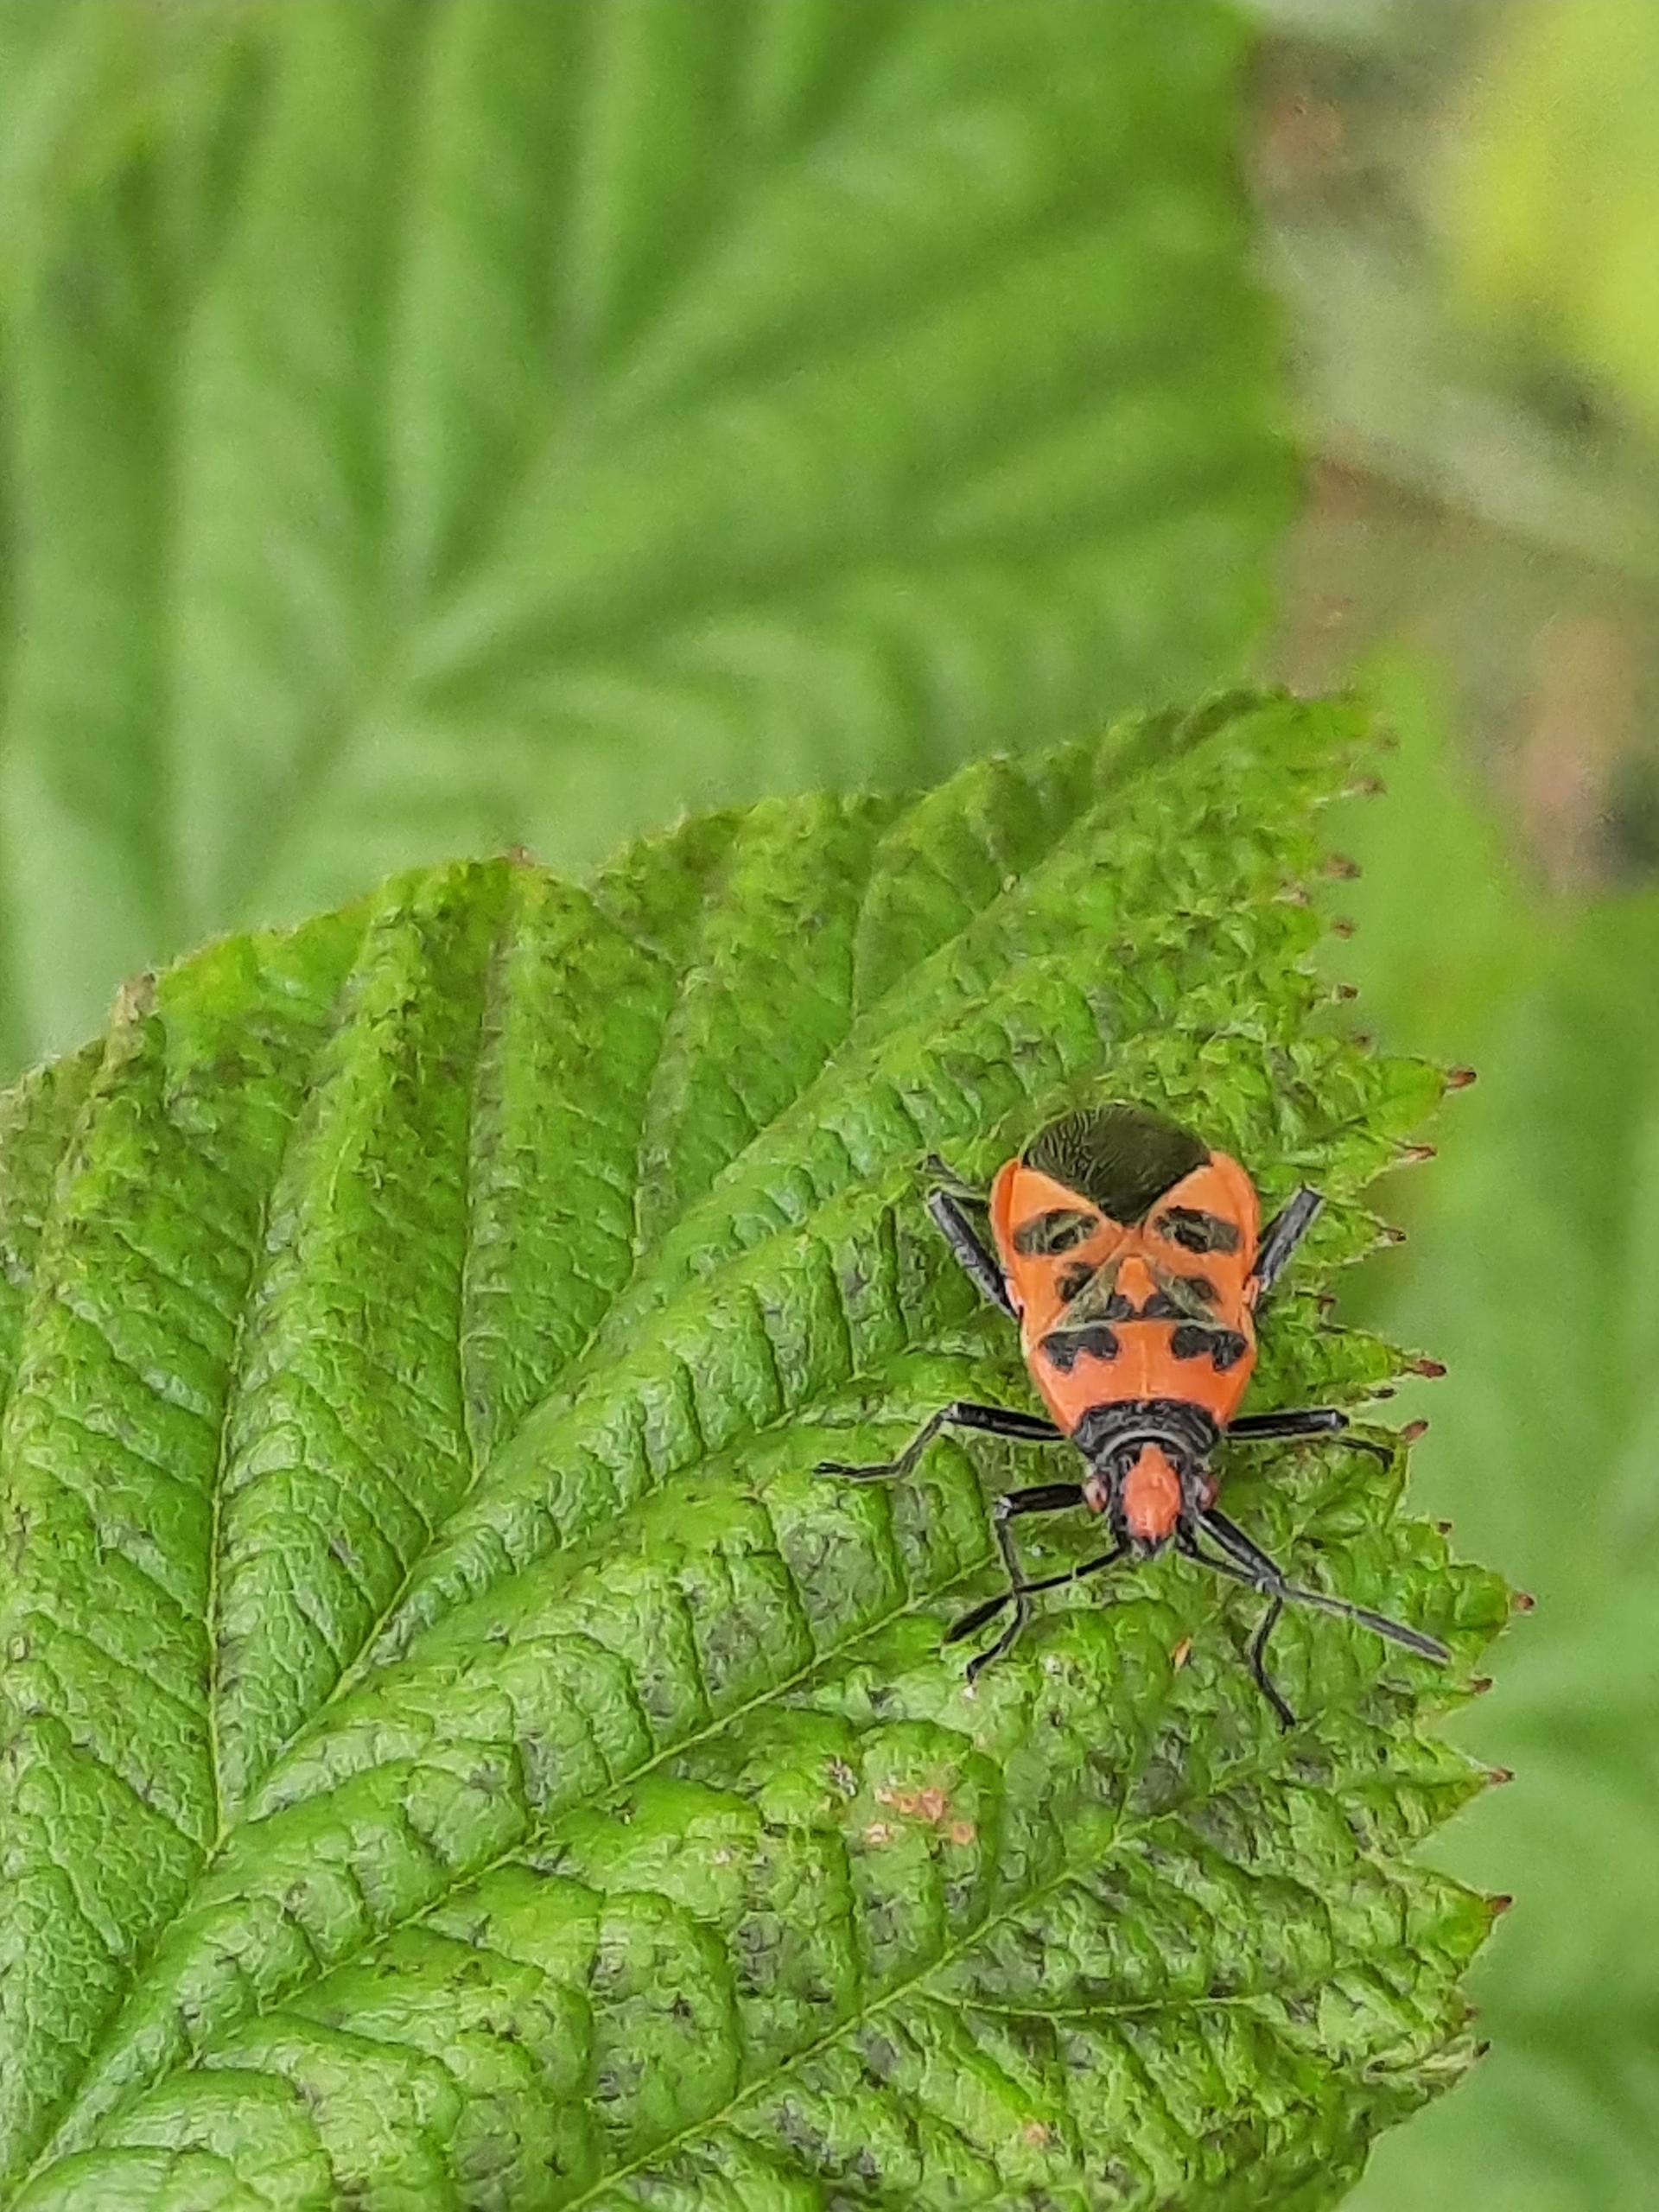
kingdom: Animalia
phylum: Arthropoda
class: Insecta
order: Hemiptera
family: Rhopalidae
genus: Corizus
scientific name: Corizus hyoscyami
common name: Rød kanttæge
